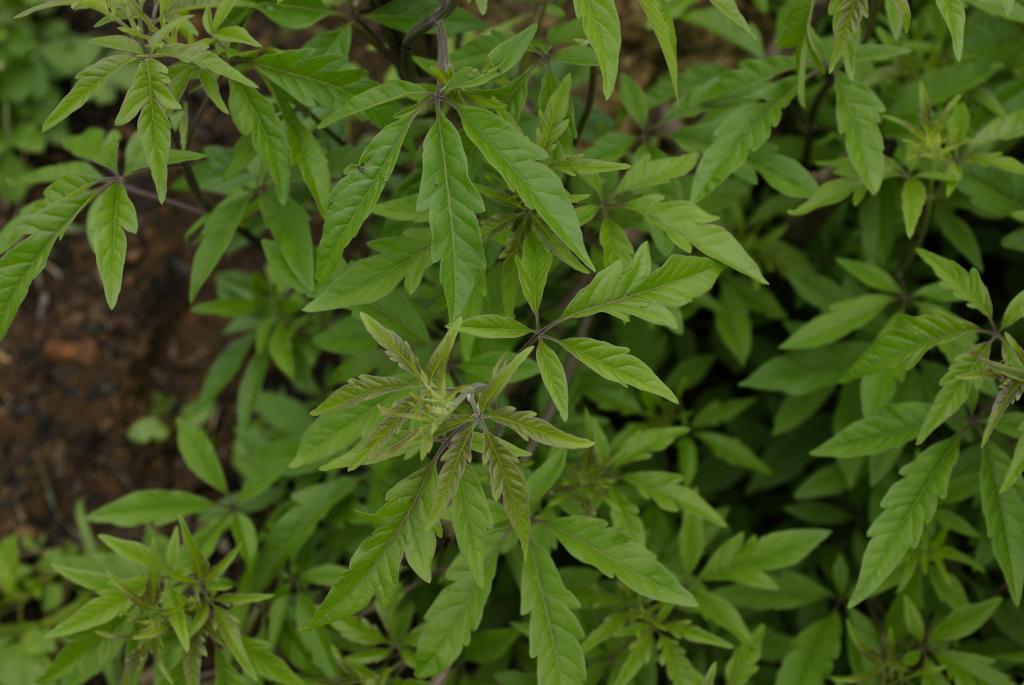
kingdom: Plantae
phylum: Tracheophyta
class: Magnoliopsida
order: Lamiales
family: Lamiaceae
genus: Vitex
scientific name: Vitex negundo
